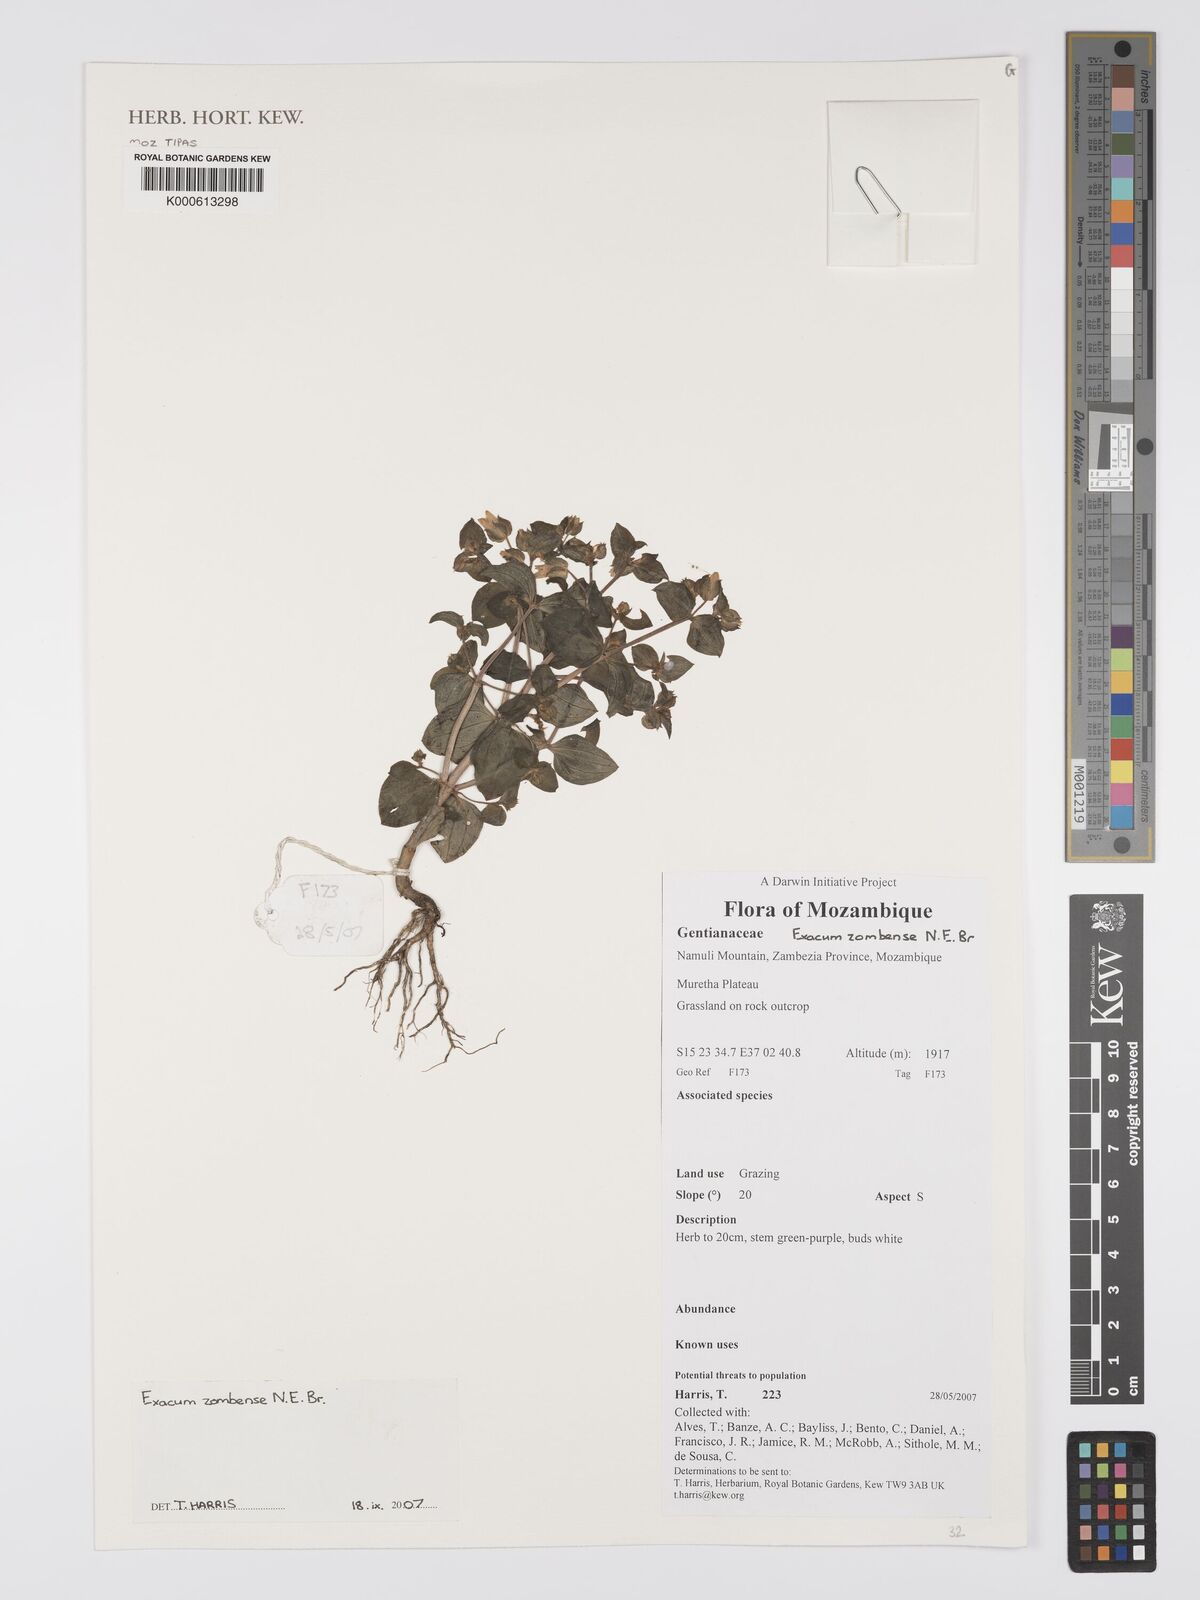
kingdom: Plantae
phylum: Tracheophyta
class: Magnoliopsida
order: Gentianales
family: Gentianaceae
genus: Exacum
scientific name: Exacum zombense
